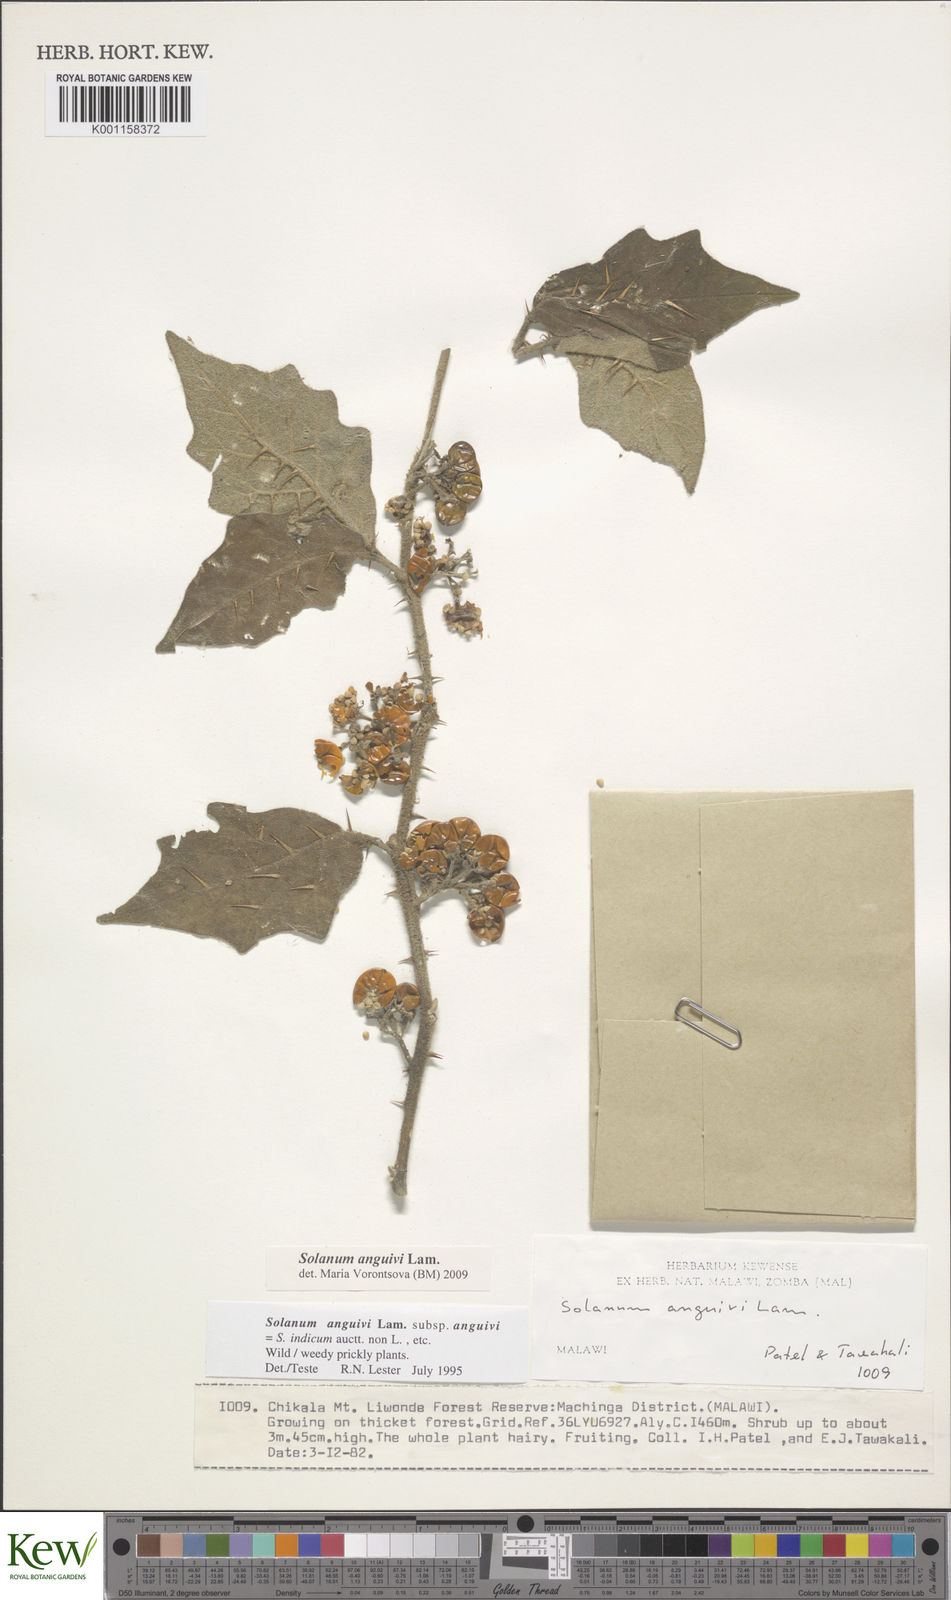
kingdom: Plantae
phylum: Tracheophyta
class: Magnoliopsida
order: Solanales
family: Solanaceae
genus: Solanum
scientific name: Solanum anguivi
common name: Forest bitterberry
